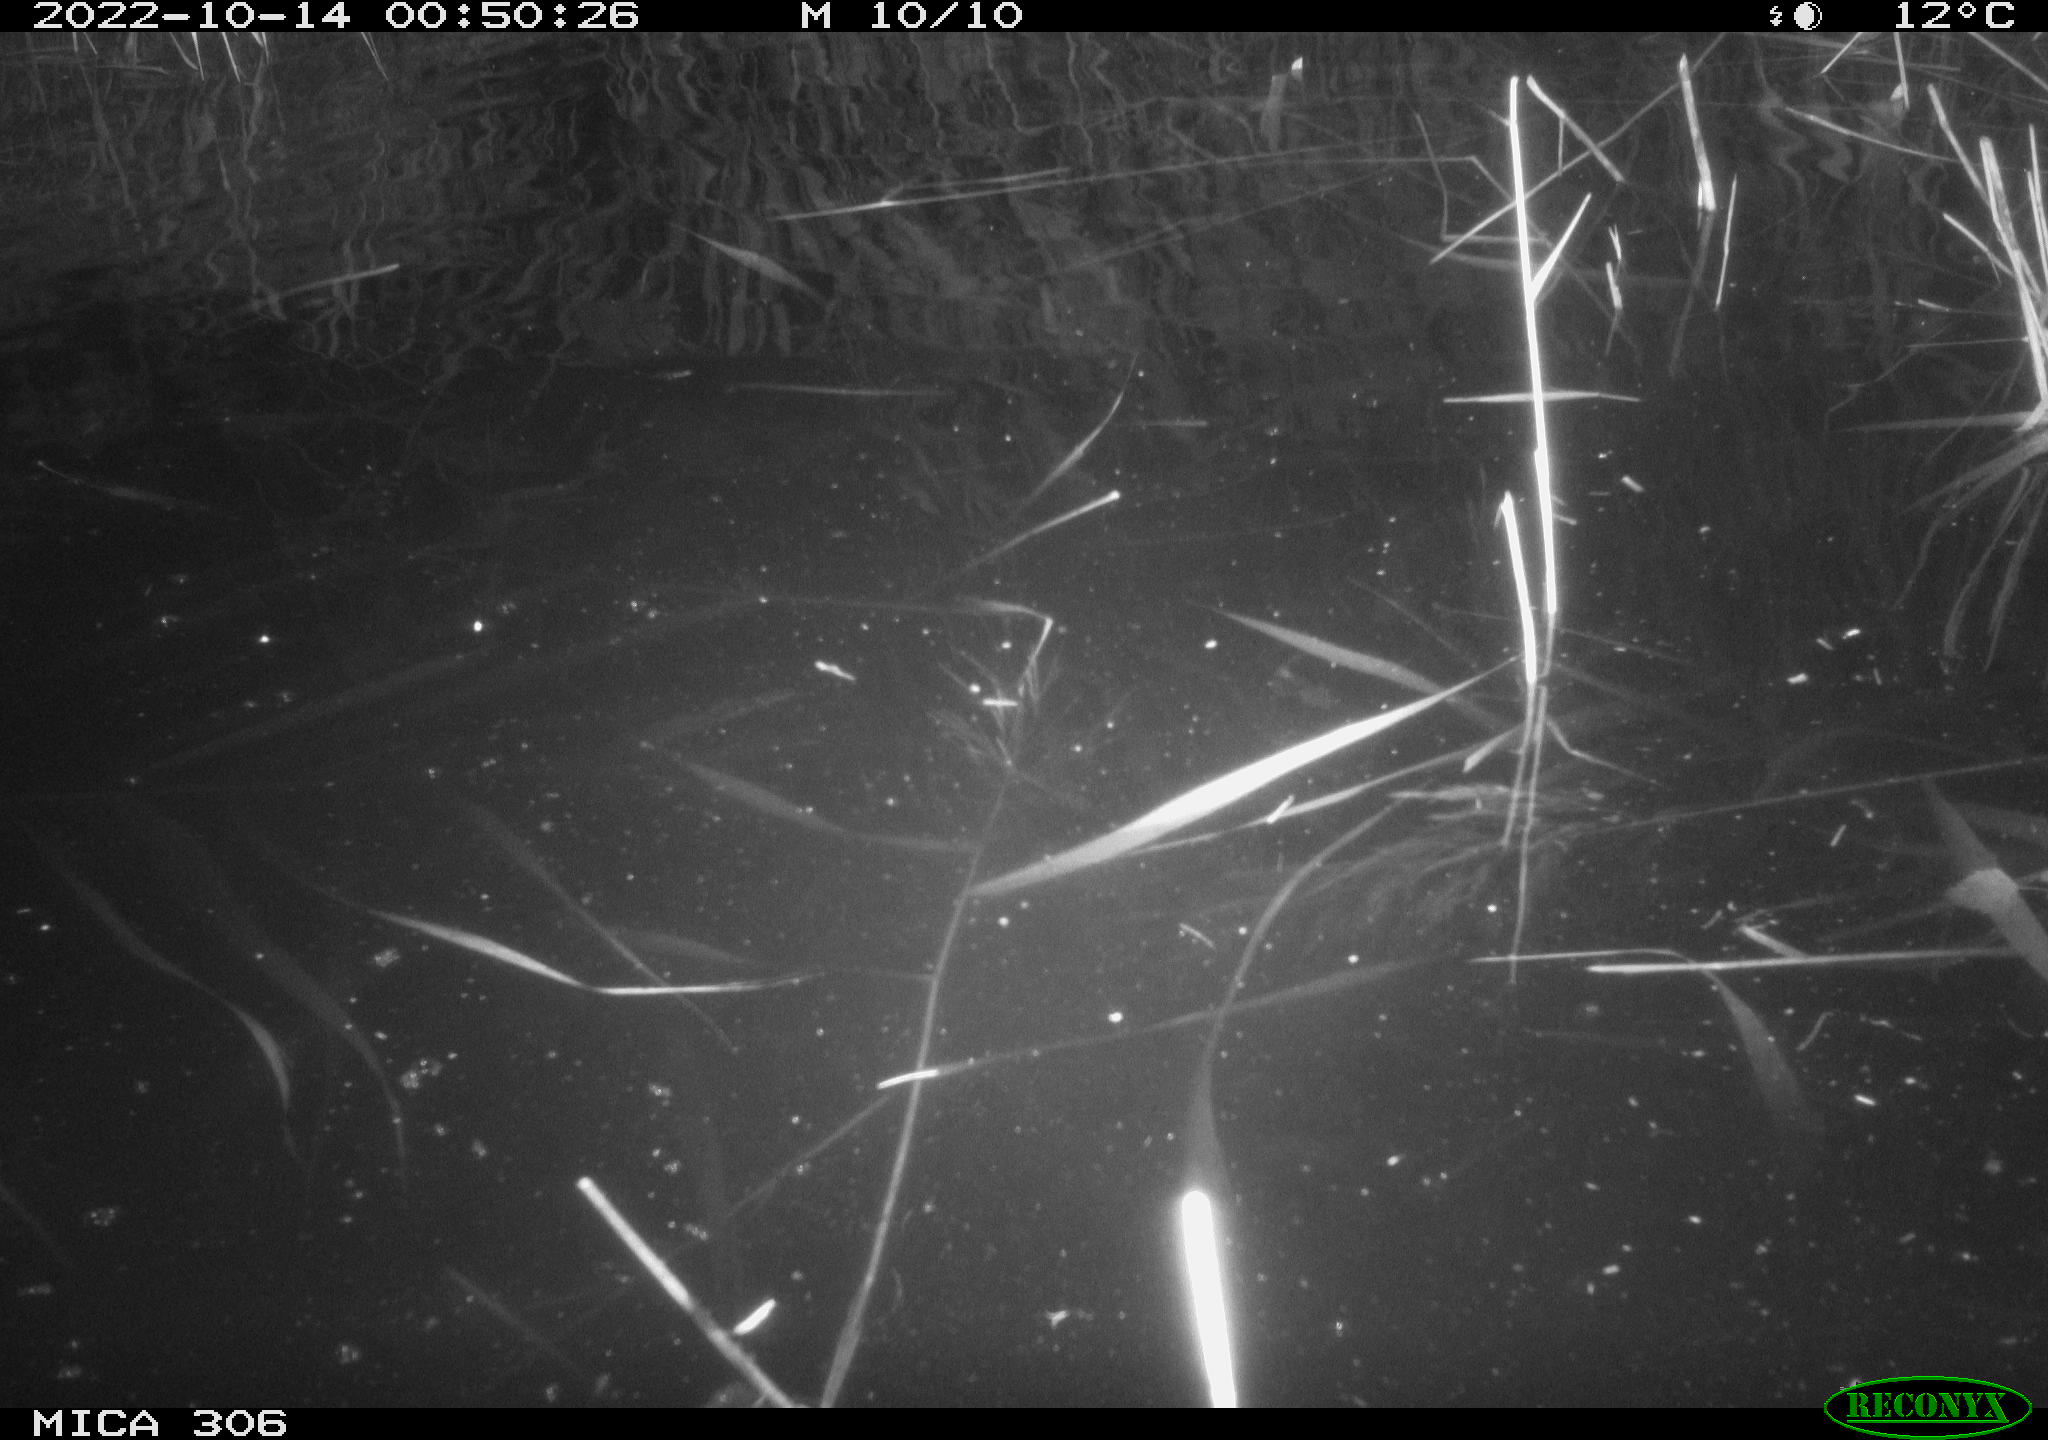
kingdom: Animalia
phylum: Chordata
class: Mammalia
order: Rodentia
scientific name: Rodentia
